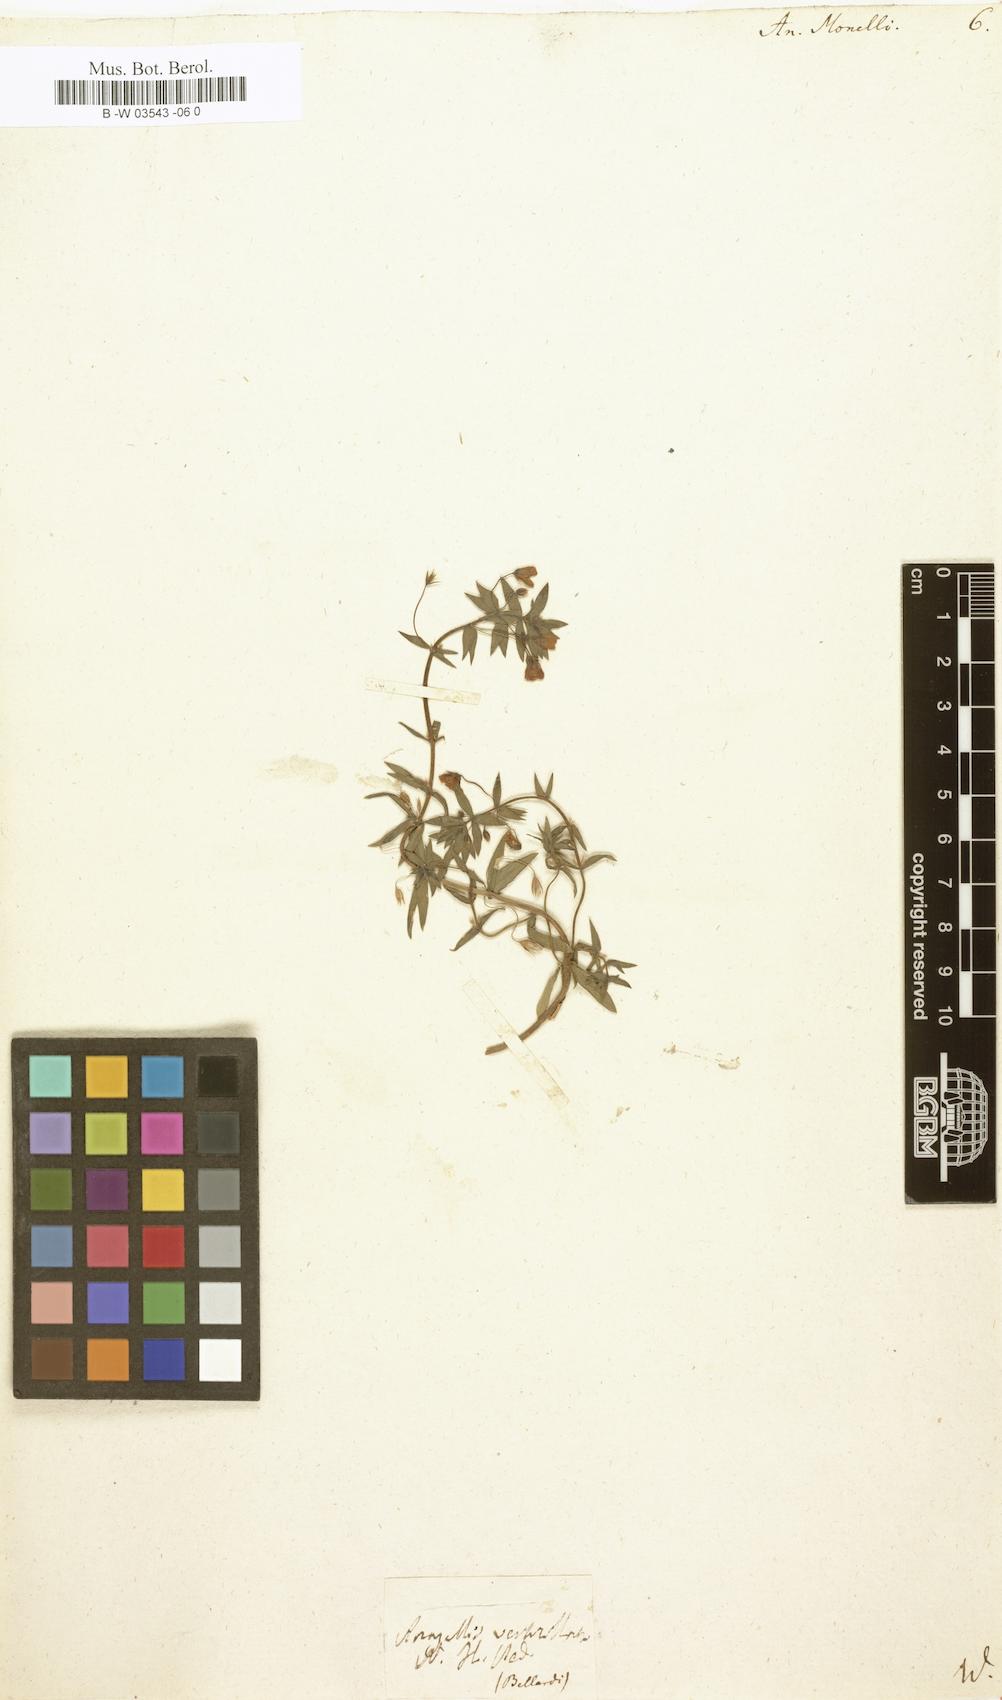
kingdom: Plantae
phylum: Tracheophyta
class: Magnoliopsida
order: Ericales
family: Primulaceae
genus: Lysimachia
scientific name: Lysimachia monelli
